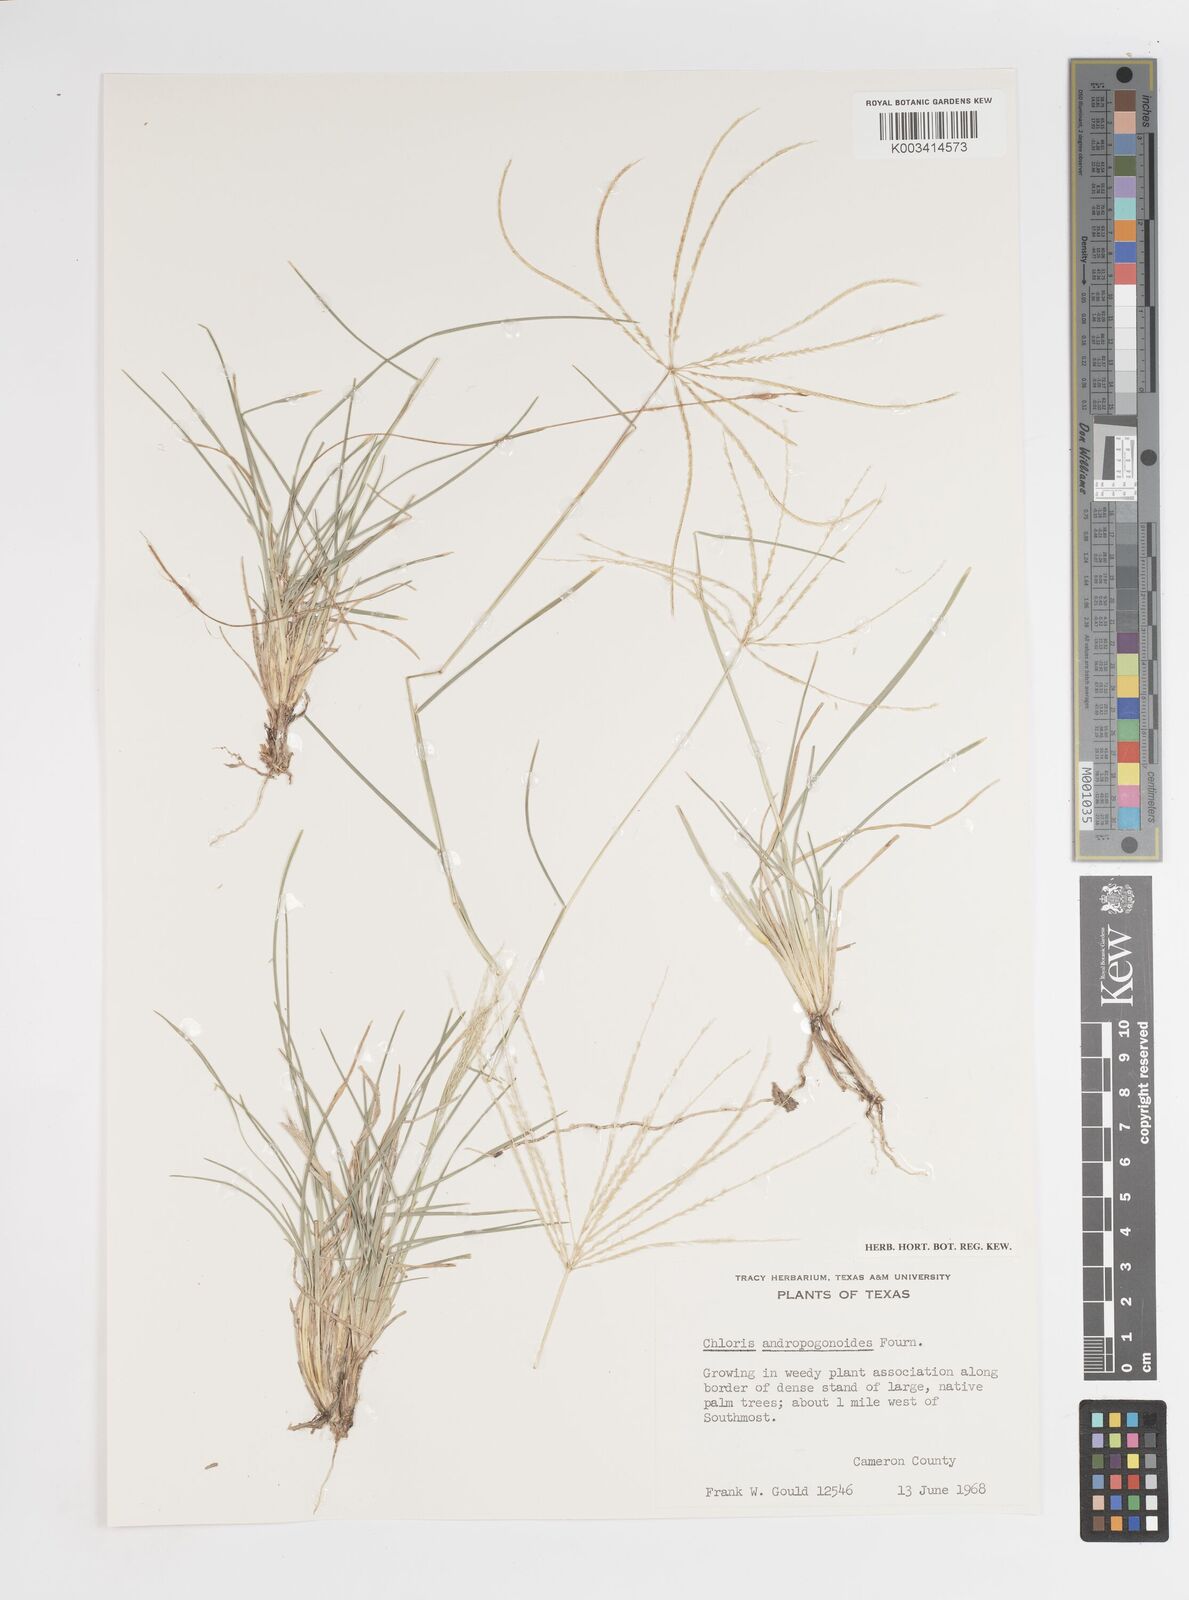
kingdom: Plantae
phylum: Tracheophyta
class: Liliopsida
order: Poales
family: Poaceae
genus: Chloris
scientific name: Chloris andropogonoides
